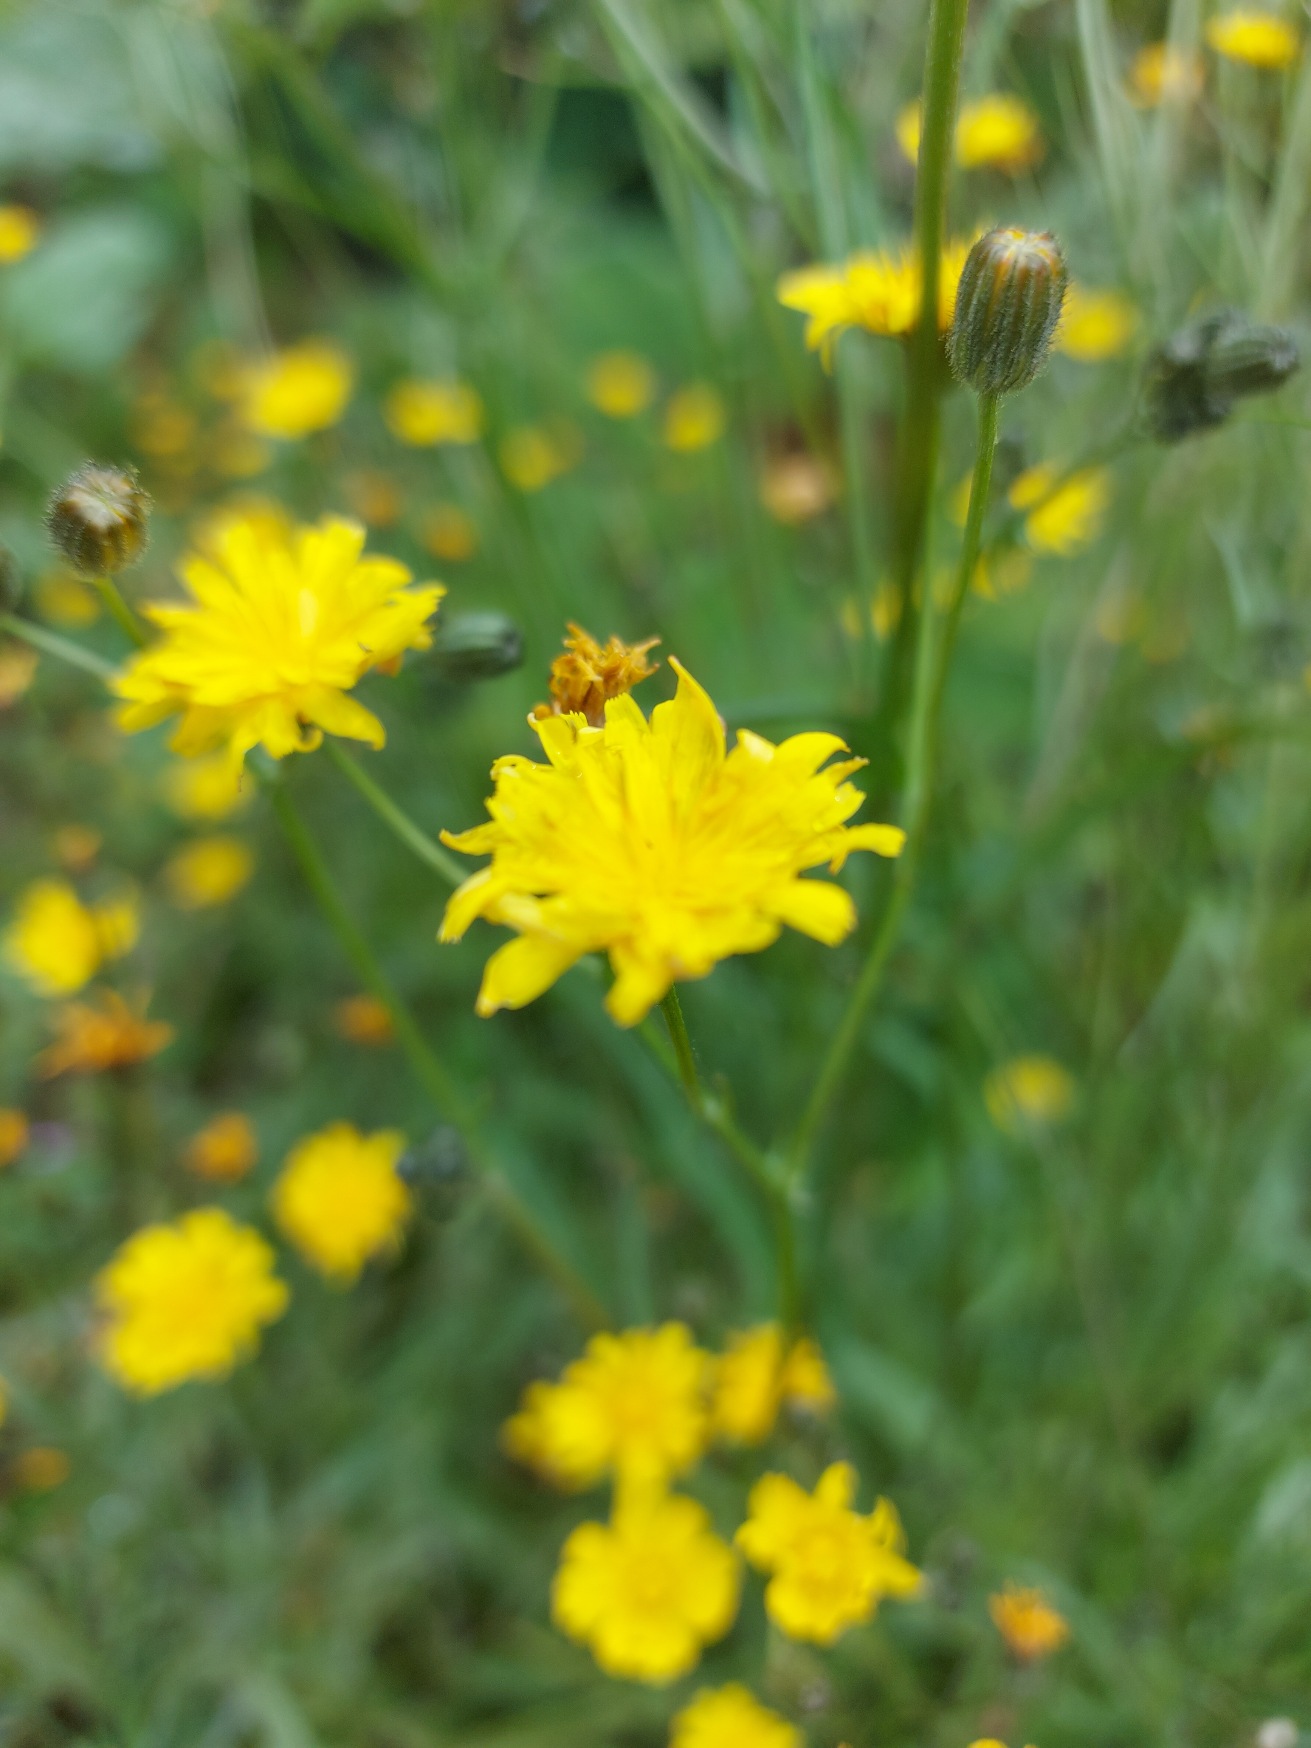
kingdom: Plantae
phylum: Tracheophyta
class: Magnoliopsida
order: Asterales
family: Asteraceae
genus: Crepis
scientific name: Crepis capillaris
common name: Grøn høgeskæg
